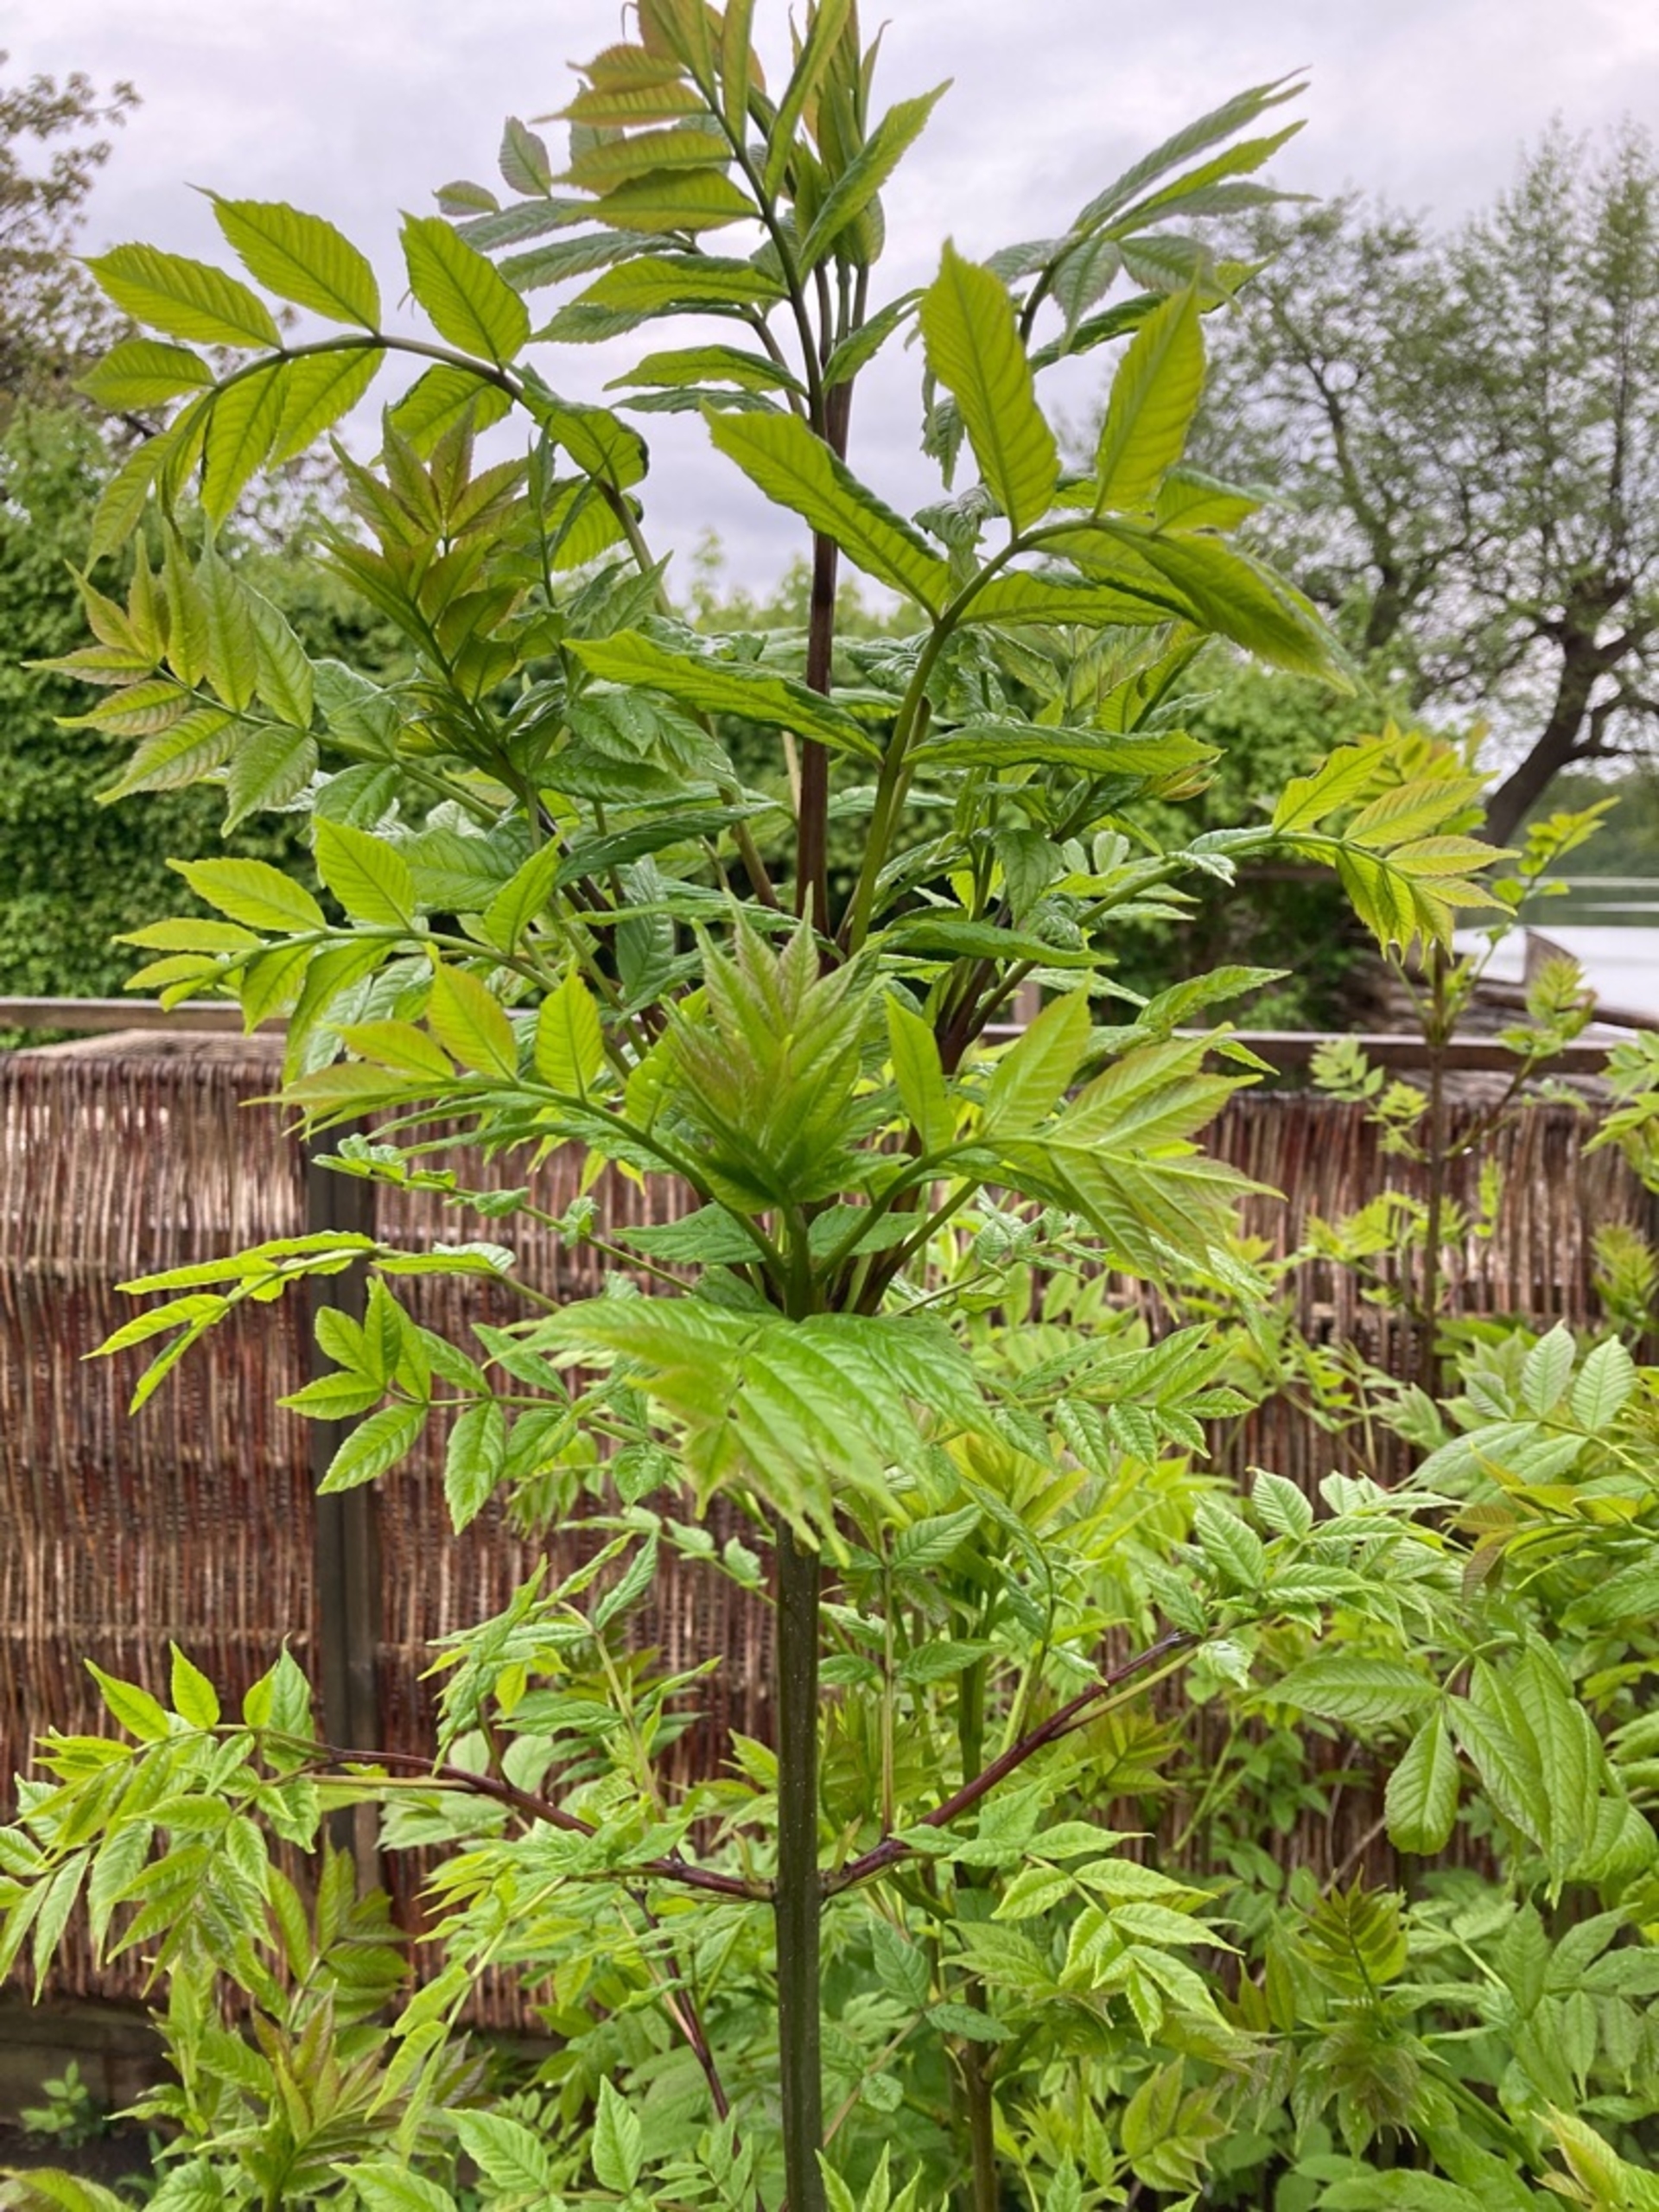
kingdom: Plantae
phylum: Tracheophyta
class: Magnoliopsida
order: Lamiales
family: Oleaceae
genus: Fraxinus
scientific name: Fraxinus excelsior
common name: Ask
